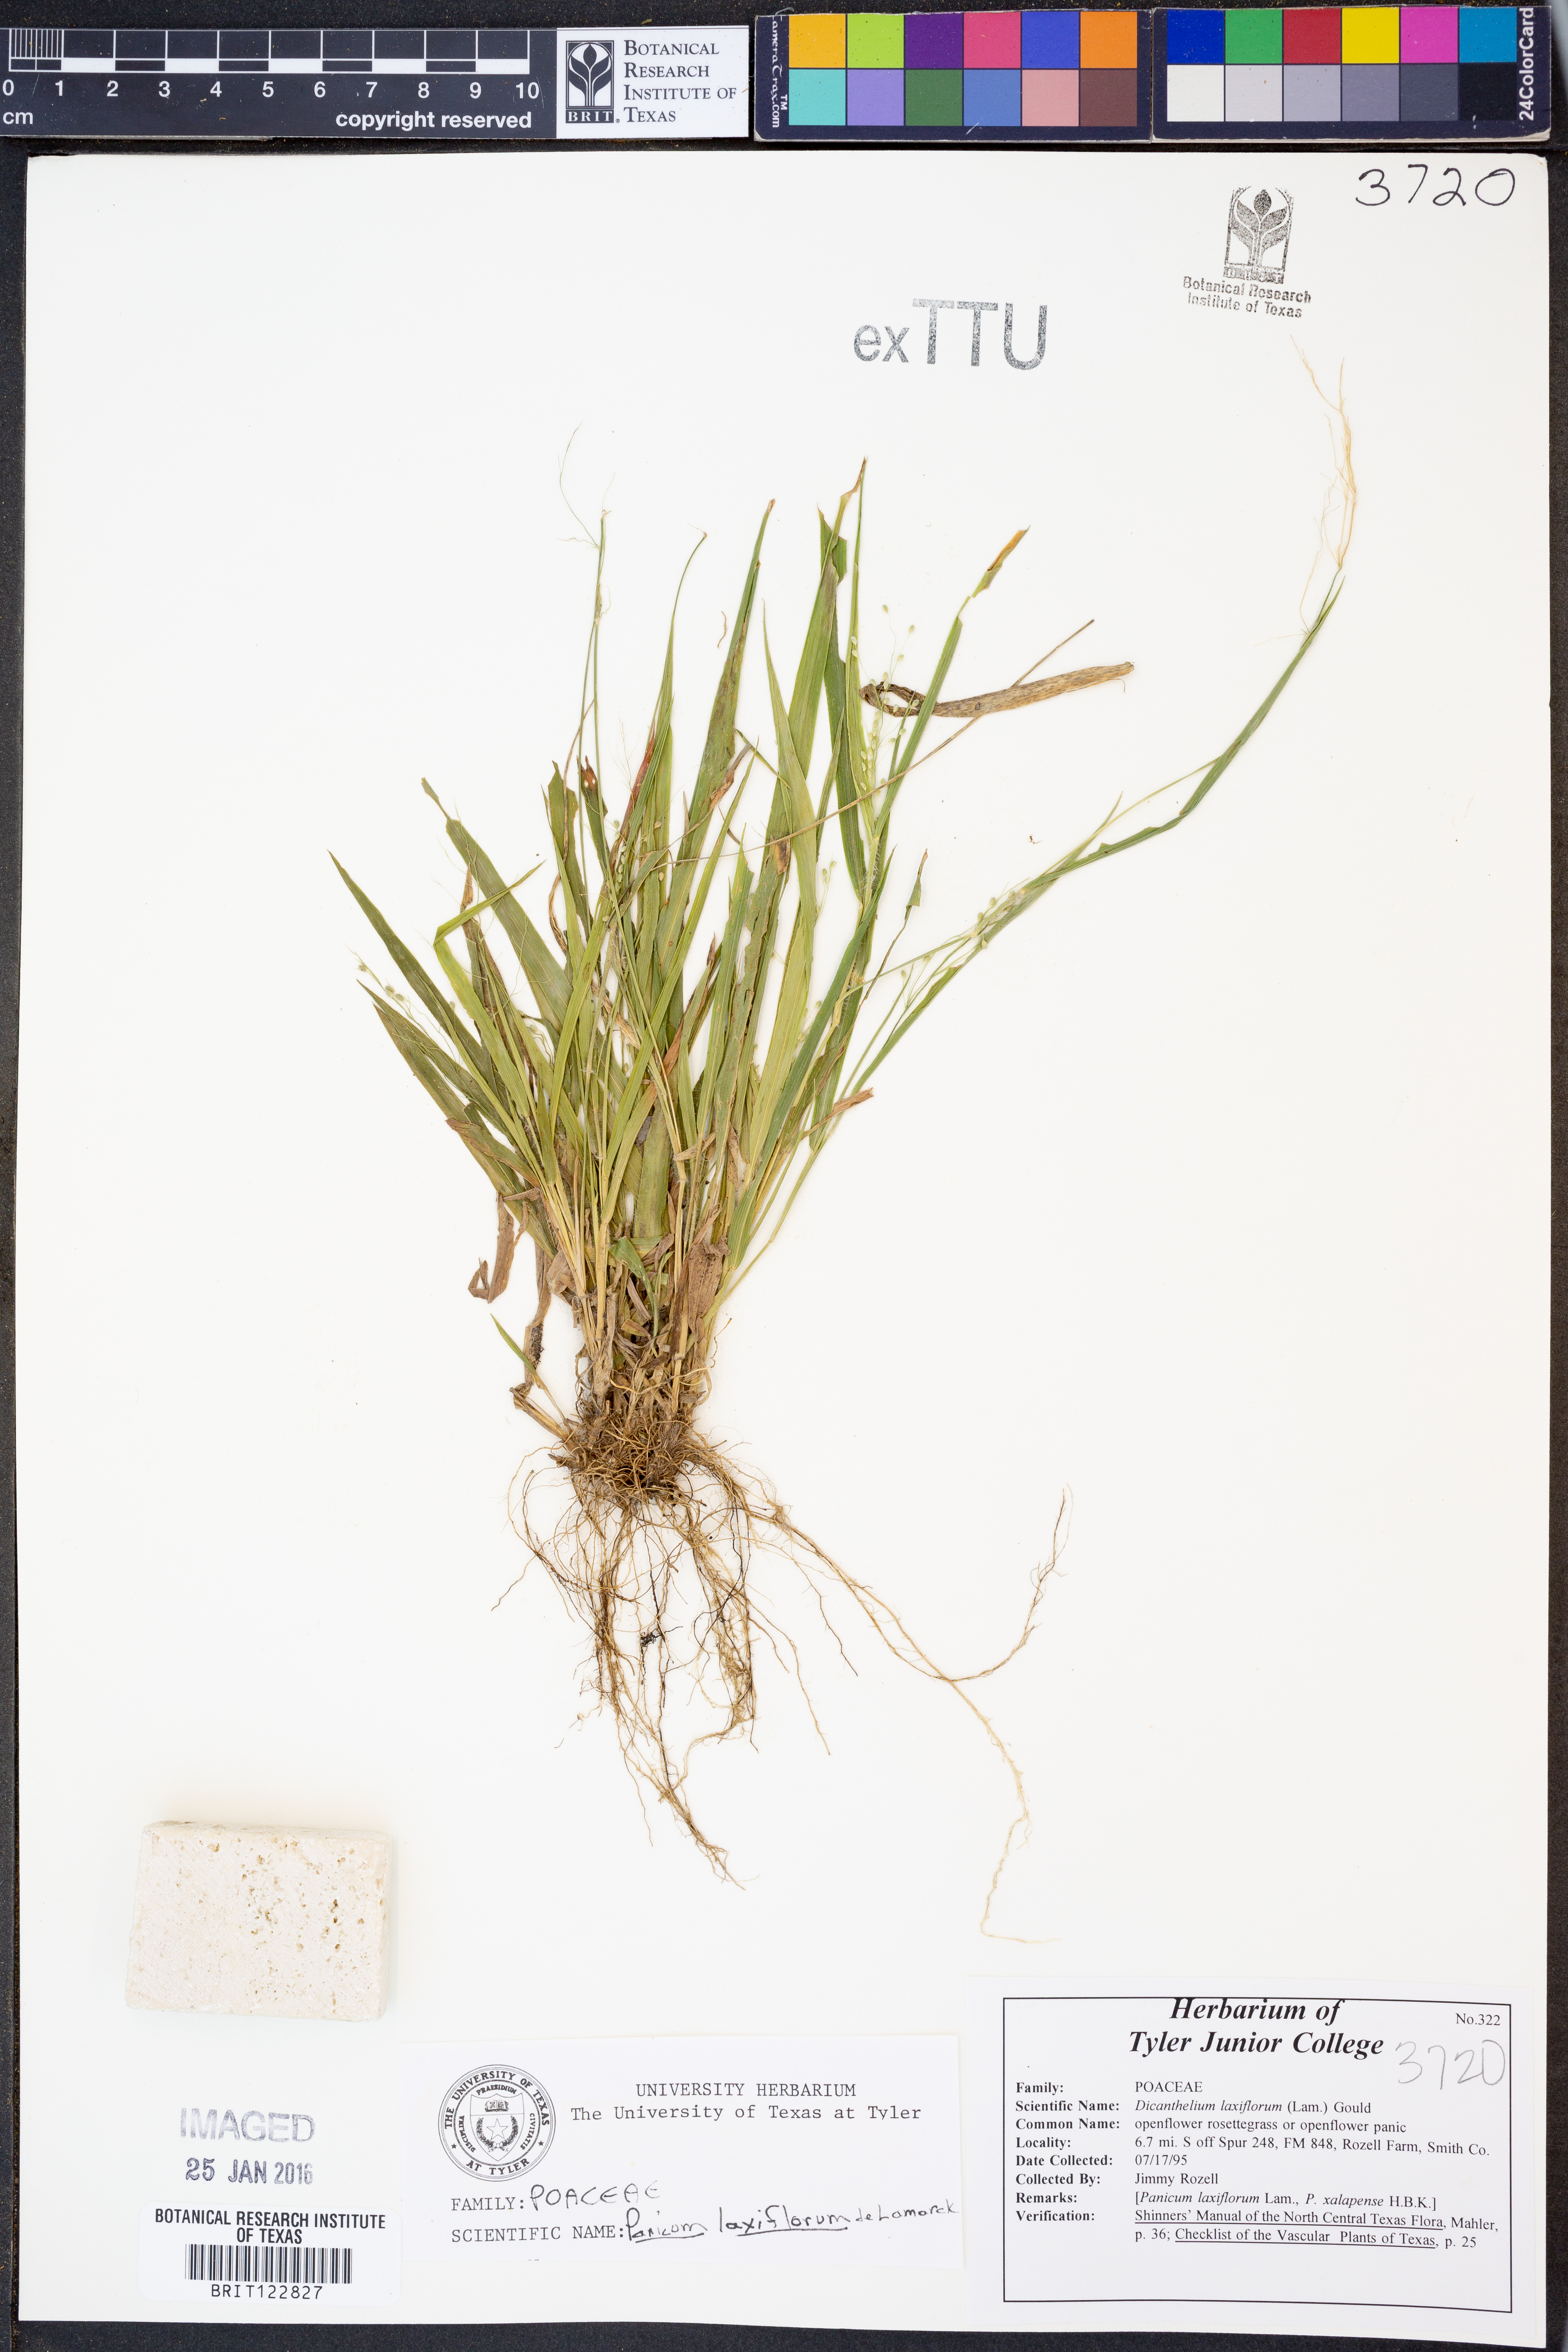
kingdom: Plantae
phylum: Tracheophyta
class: Liliopsida
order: Poales
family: Poaceae
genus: Dichanthelium
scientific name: Dichanthelium laxiflorum
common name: Soft-tuft panic grass
